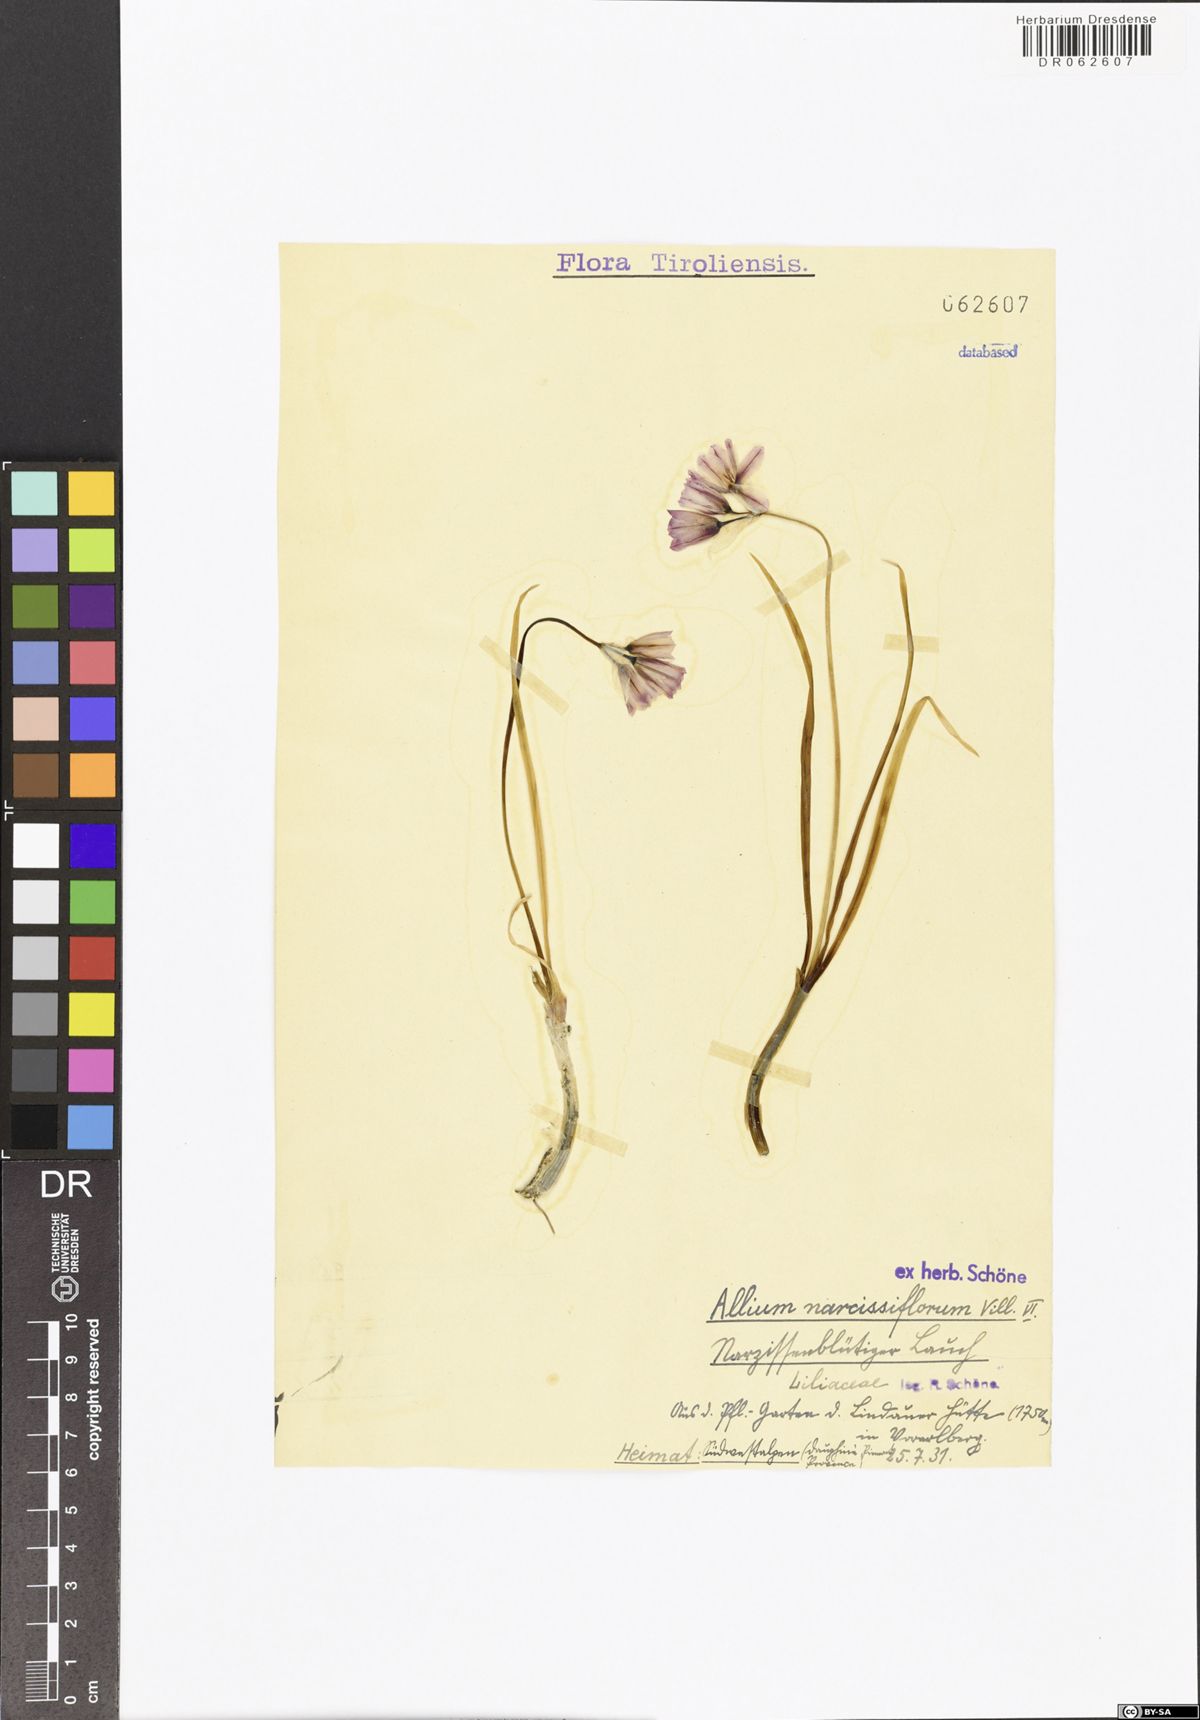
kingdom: Plantae
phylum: Tracheophyta
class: Liliopsida
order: Asparagales
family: Amaryllidaceae
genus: Allium
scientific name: Allium narcissiflorum
